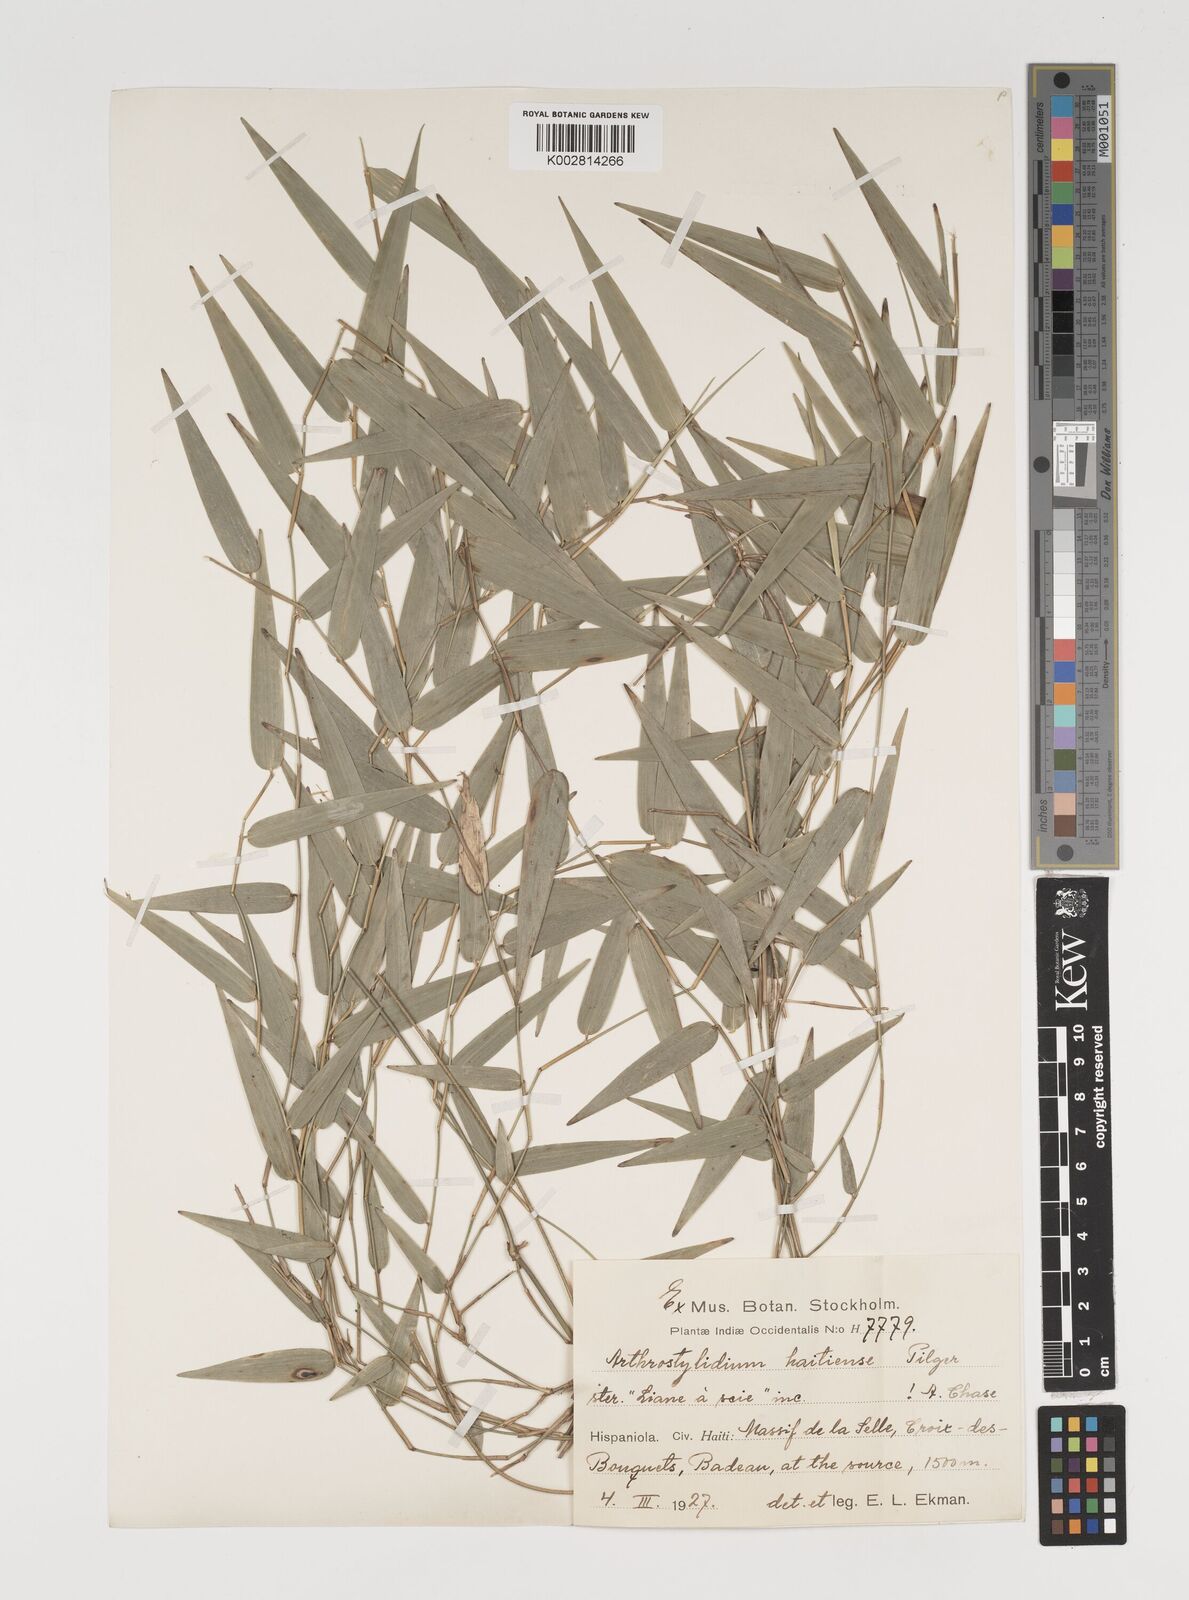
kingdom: Plantae
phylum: Tracheophyta
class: Liliopsida
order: Poales
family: Poaceae
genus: Arthrostylidium
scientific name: Arthrostylidium haitiense
